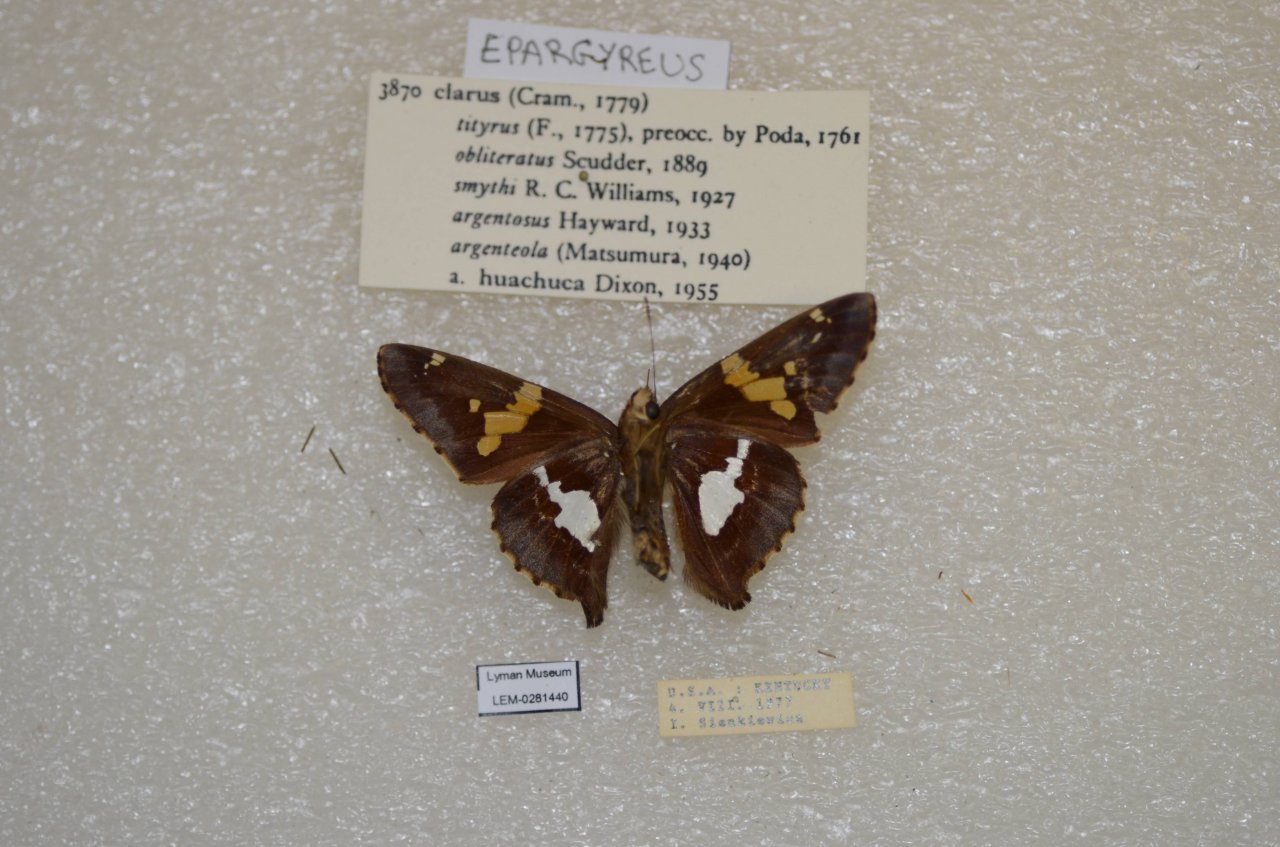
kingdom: Animalia
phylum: Arthropoda
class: Insecta
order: Lepidoptera
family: Hesperiidae
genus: Epargyreus
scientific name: Epargyreus clarus
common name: Silver-spotted Skipper
